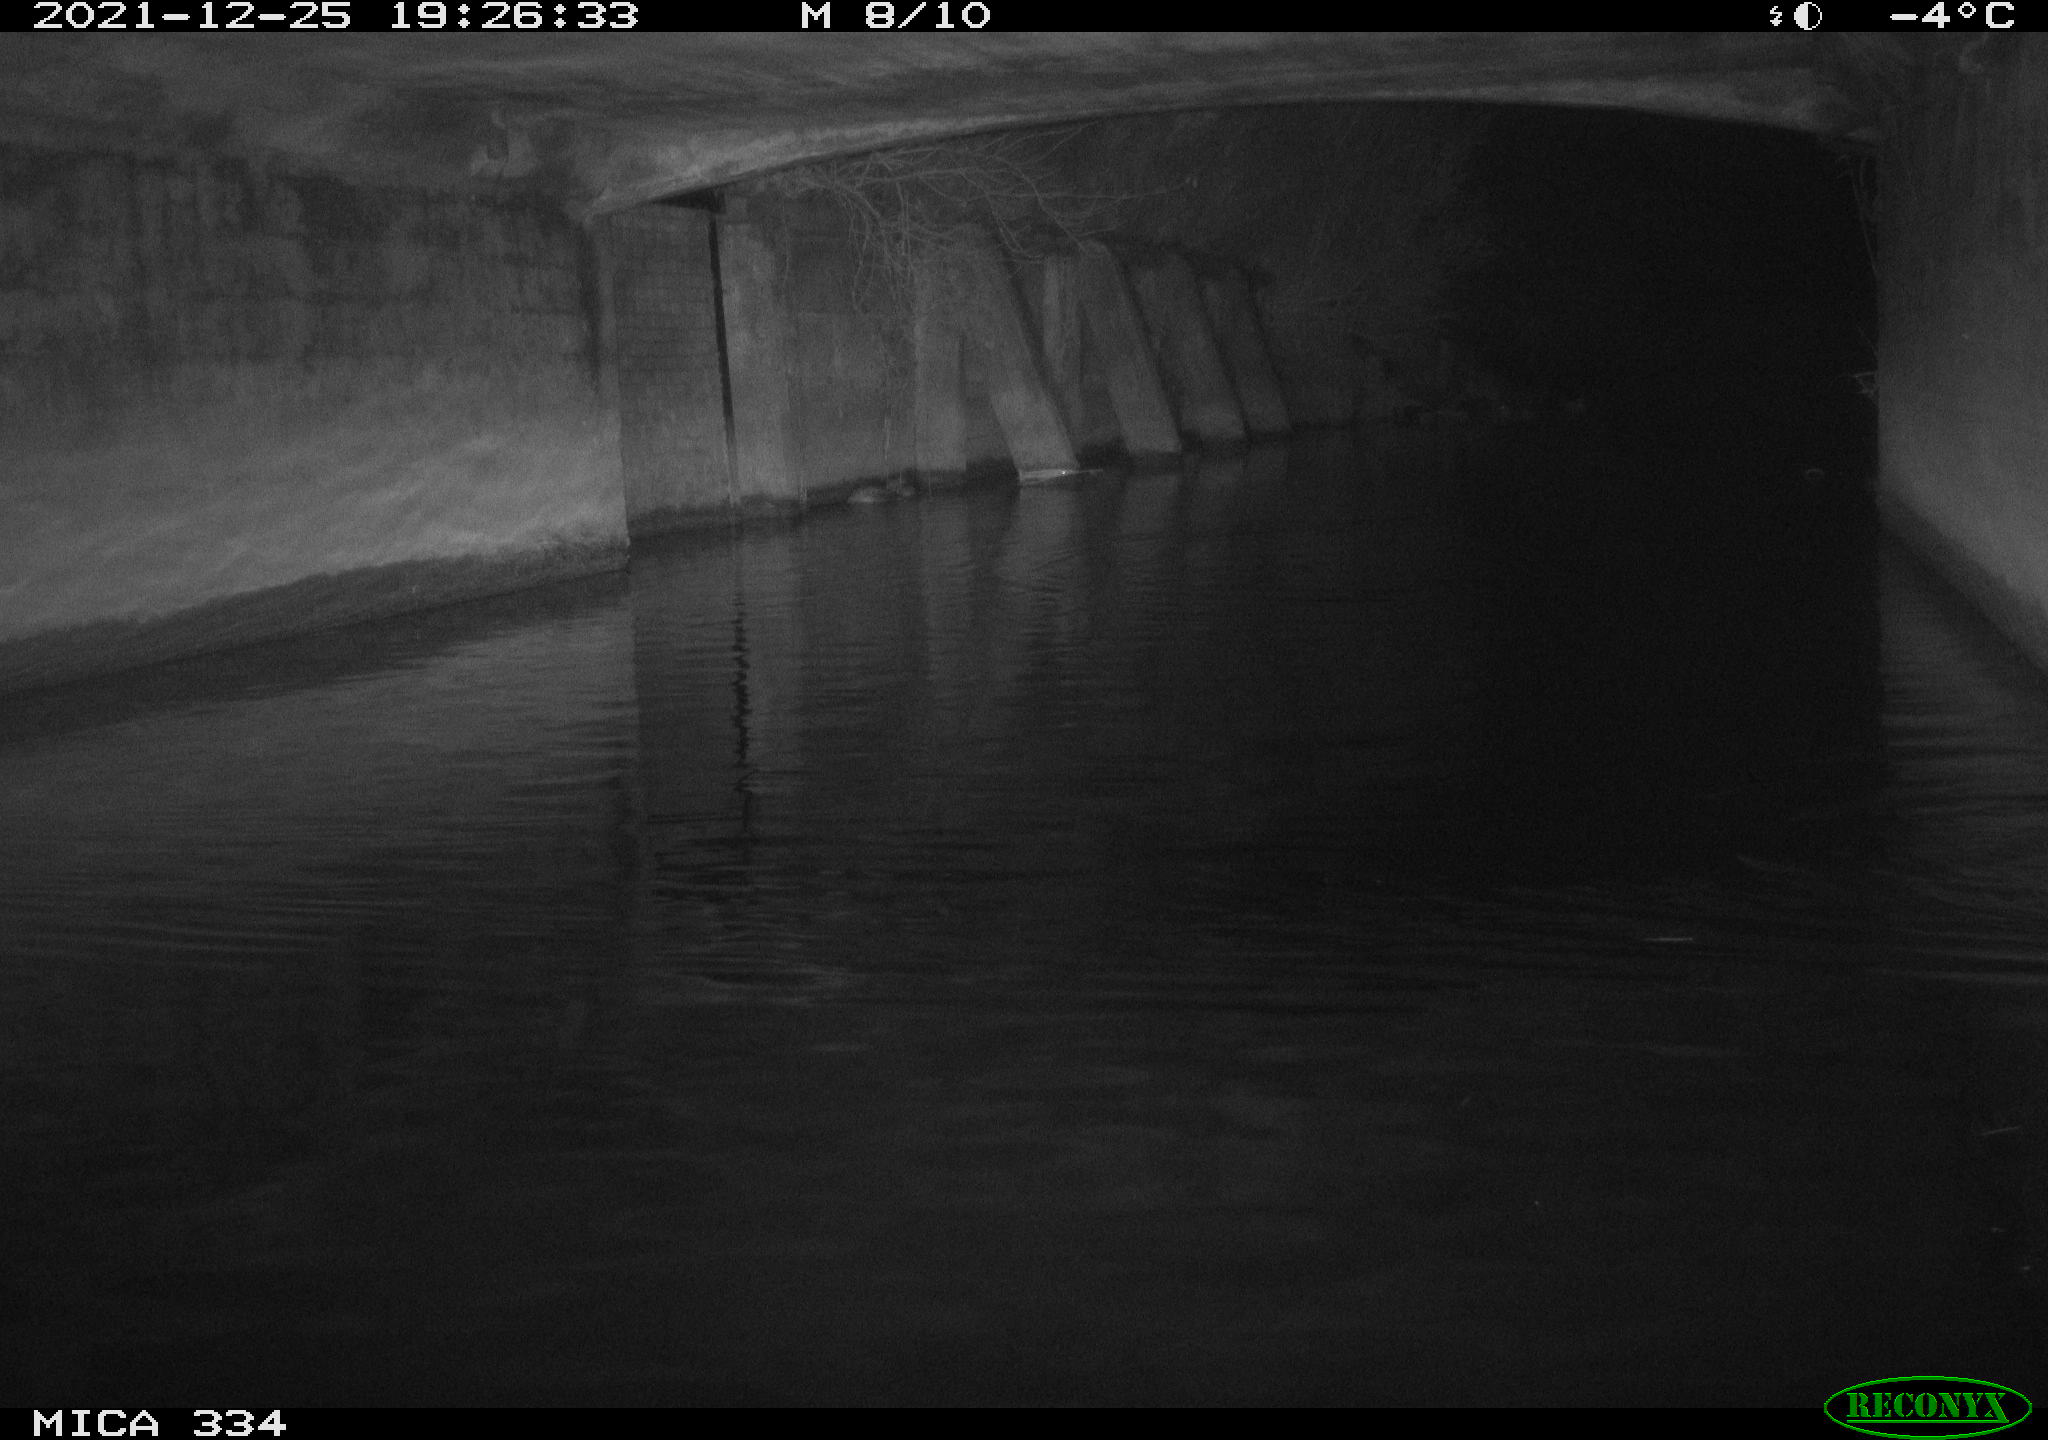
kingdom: Animalia
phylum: Chordata
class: Aves
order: Anseriformes
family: Anatidae
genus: Anas
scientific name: Anas platyrhynchos
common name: Mallard
